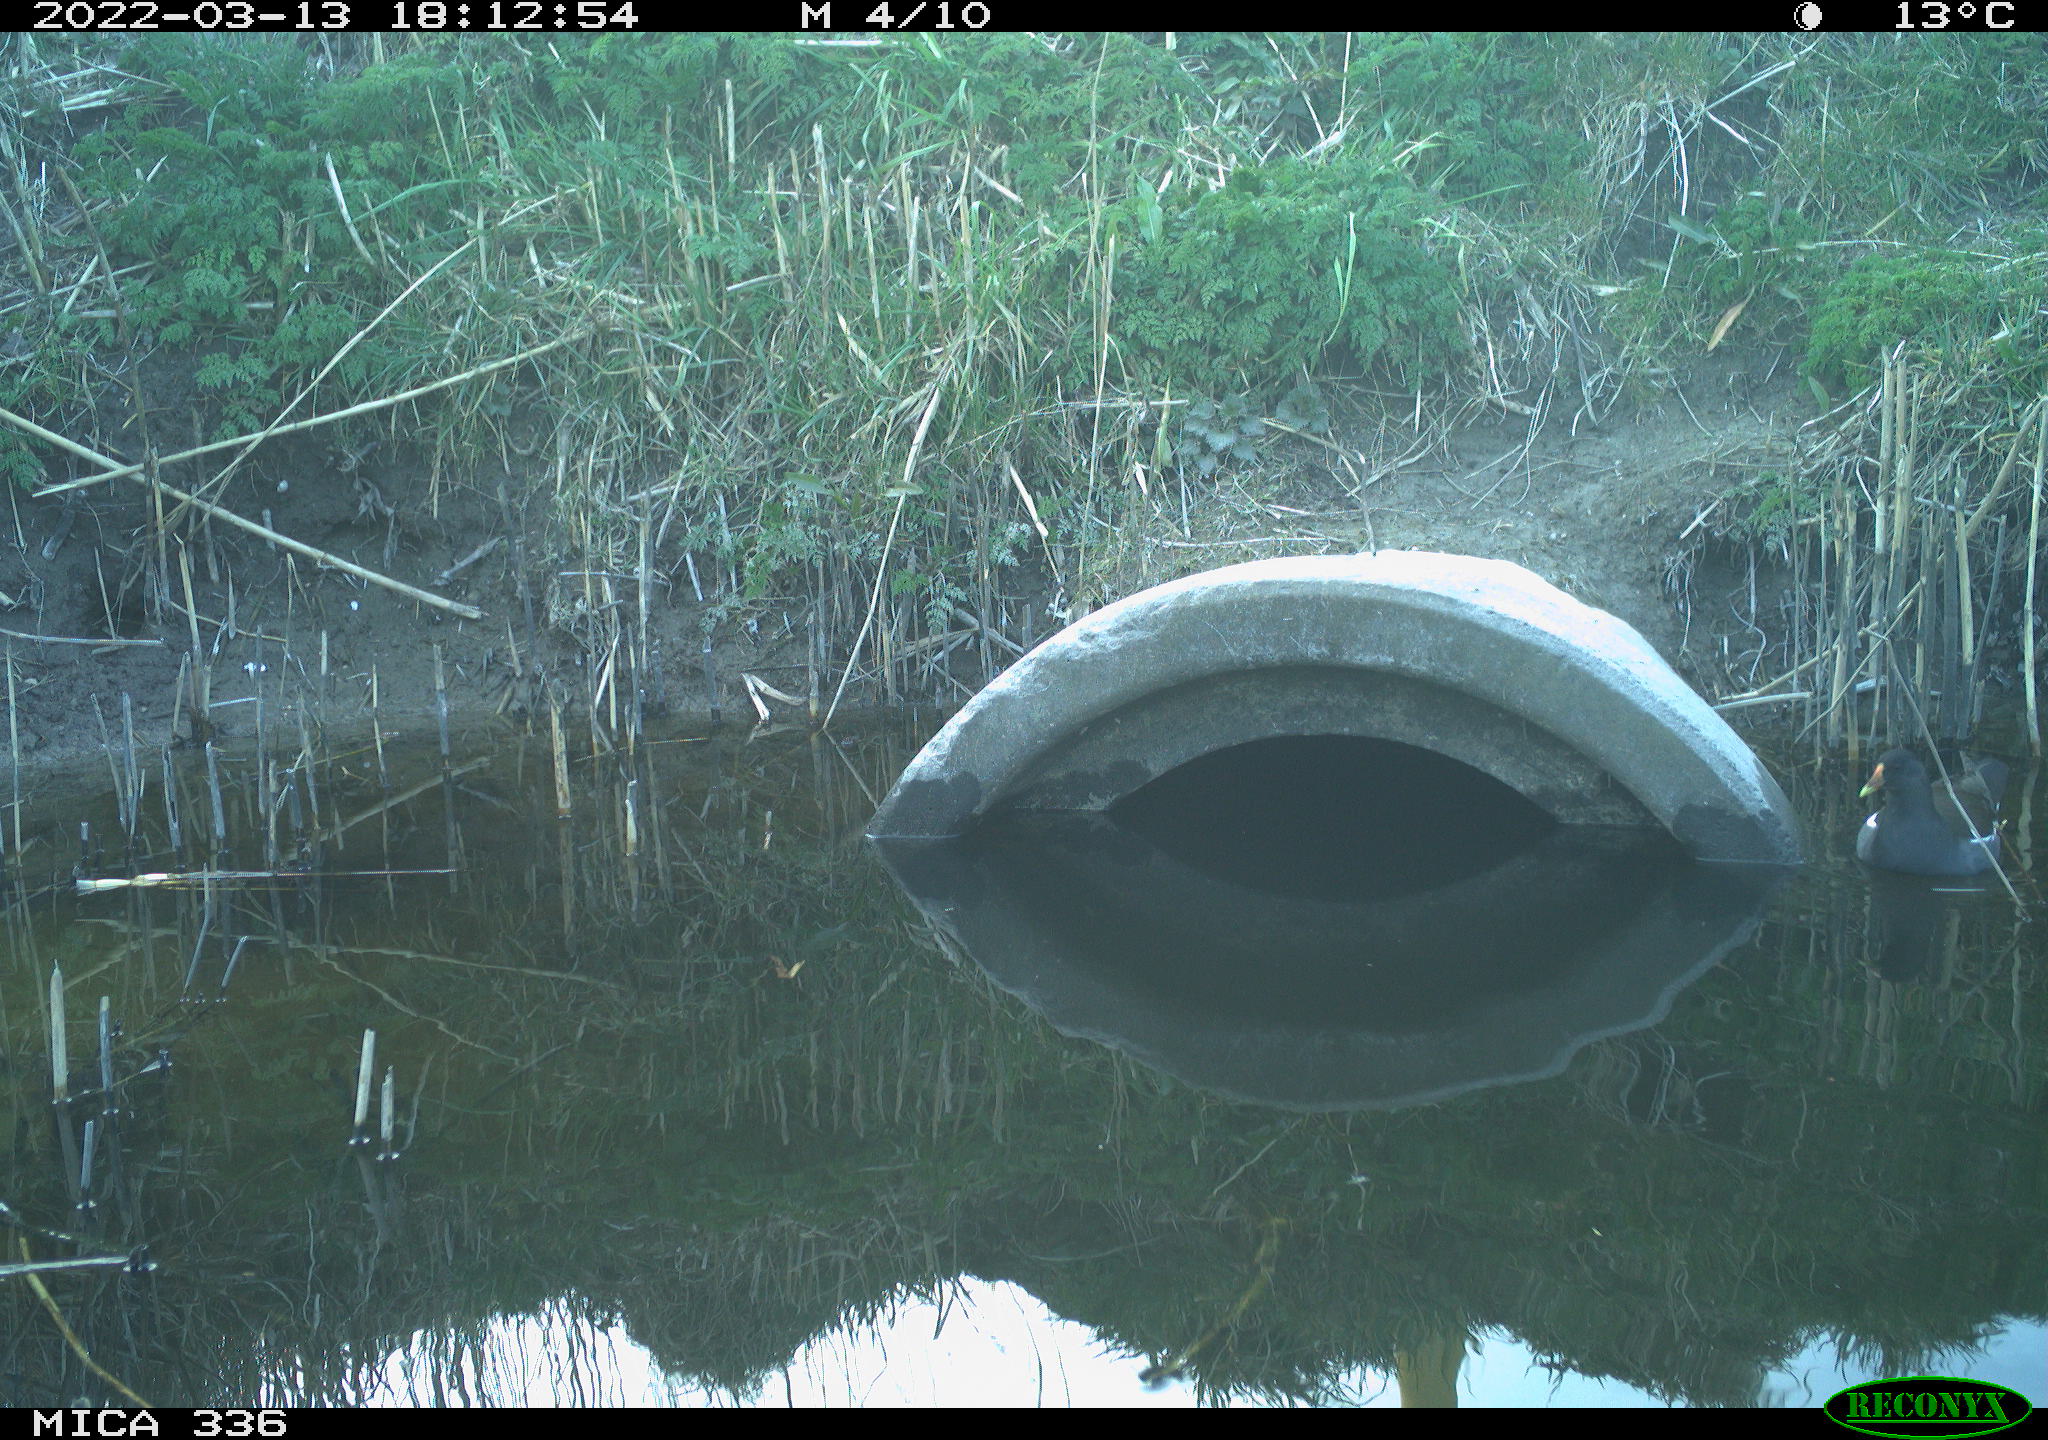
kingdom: Animalia
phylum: Chordata
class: Aves
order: Gruiformes
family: Rallidae
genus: Gallinula
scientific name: Gallinula chloropus
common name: Common moorhen
